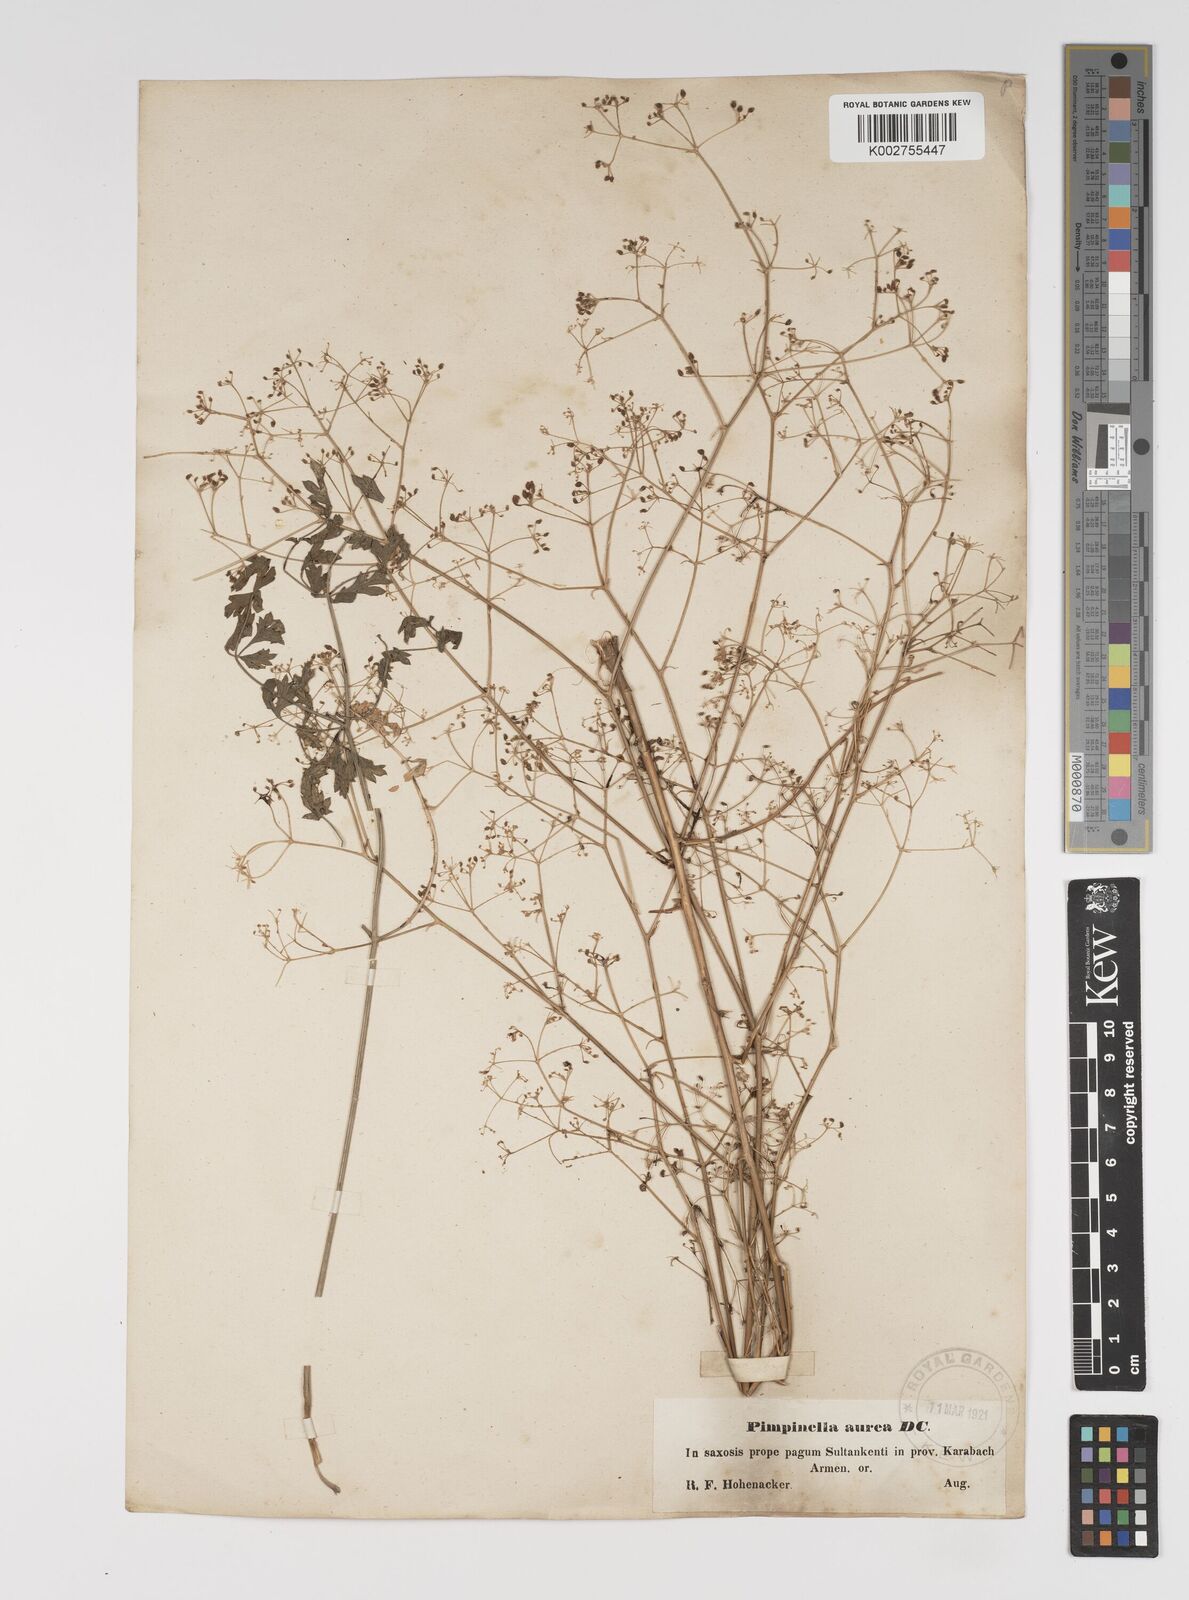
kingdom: Plantae
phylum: Tracheophyta
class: Magnoliopsida
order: Apiales
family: Apiaceae
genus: Pimpinella
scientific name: Pimpinella aurea
